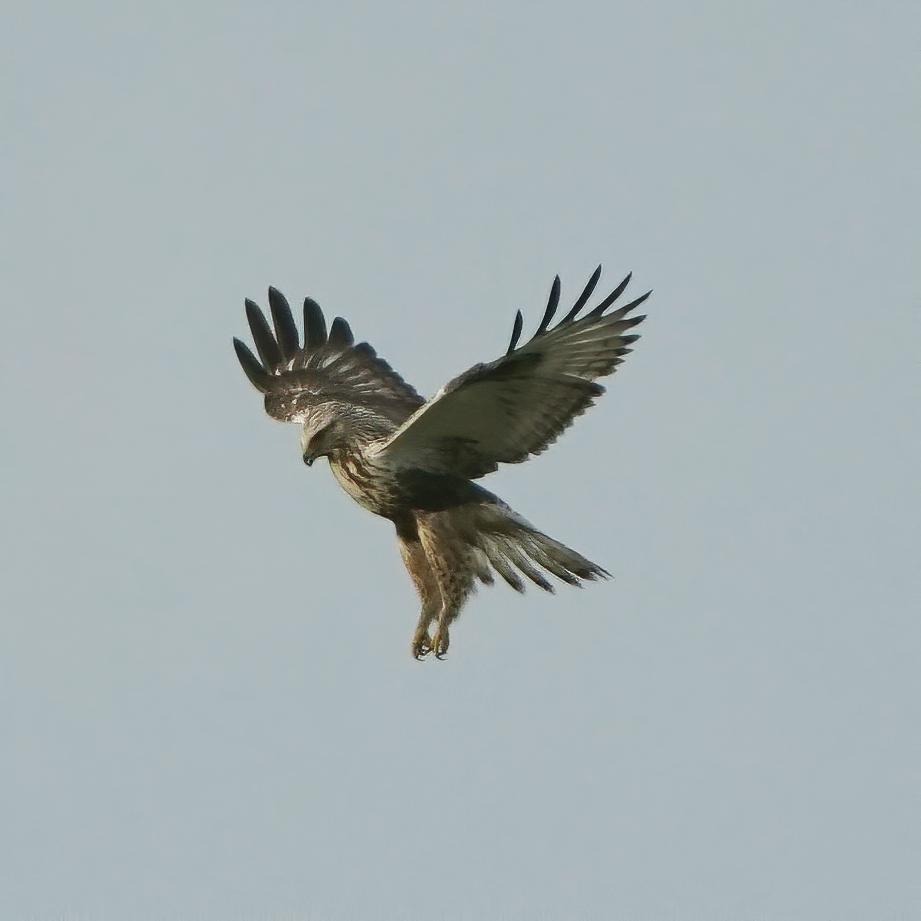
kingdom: Animalia
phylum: Chordata
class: Aves
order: Accipitriformes
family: Accipitridae
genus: Buteo
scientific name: Buteo lagopus
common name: Fjeldvåge
